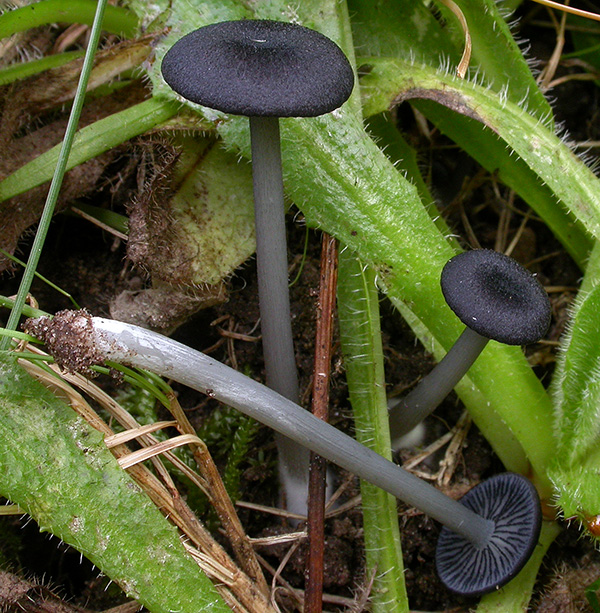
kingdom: Fungi
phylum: Basidiomycota
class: Agaricomycetes
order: Agaricales
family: Entolomataceae
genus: Entoloma
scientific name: Entoloma
